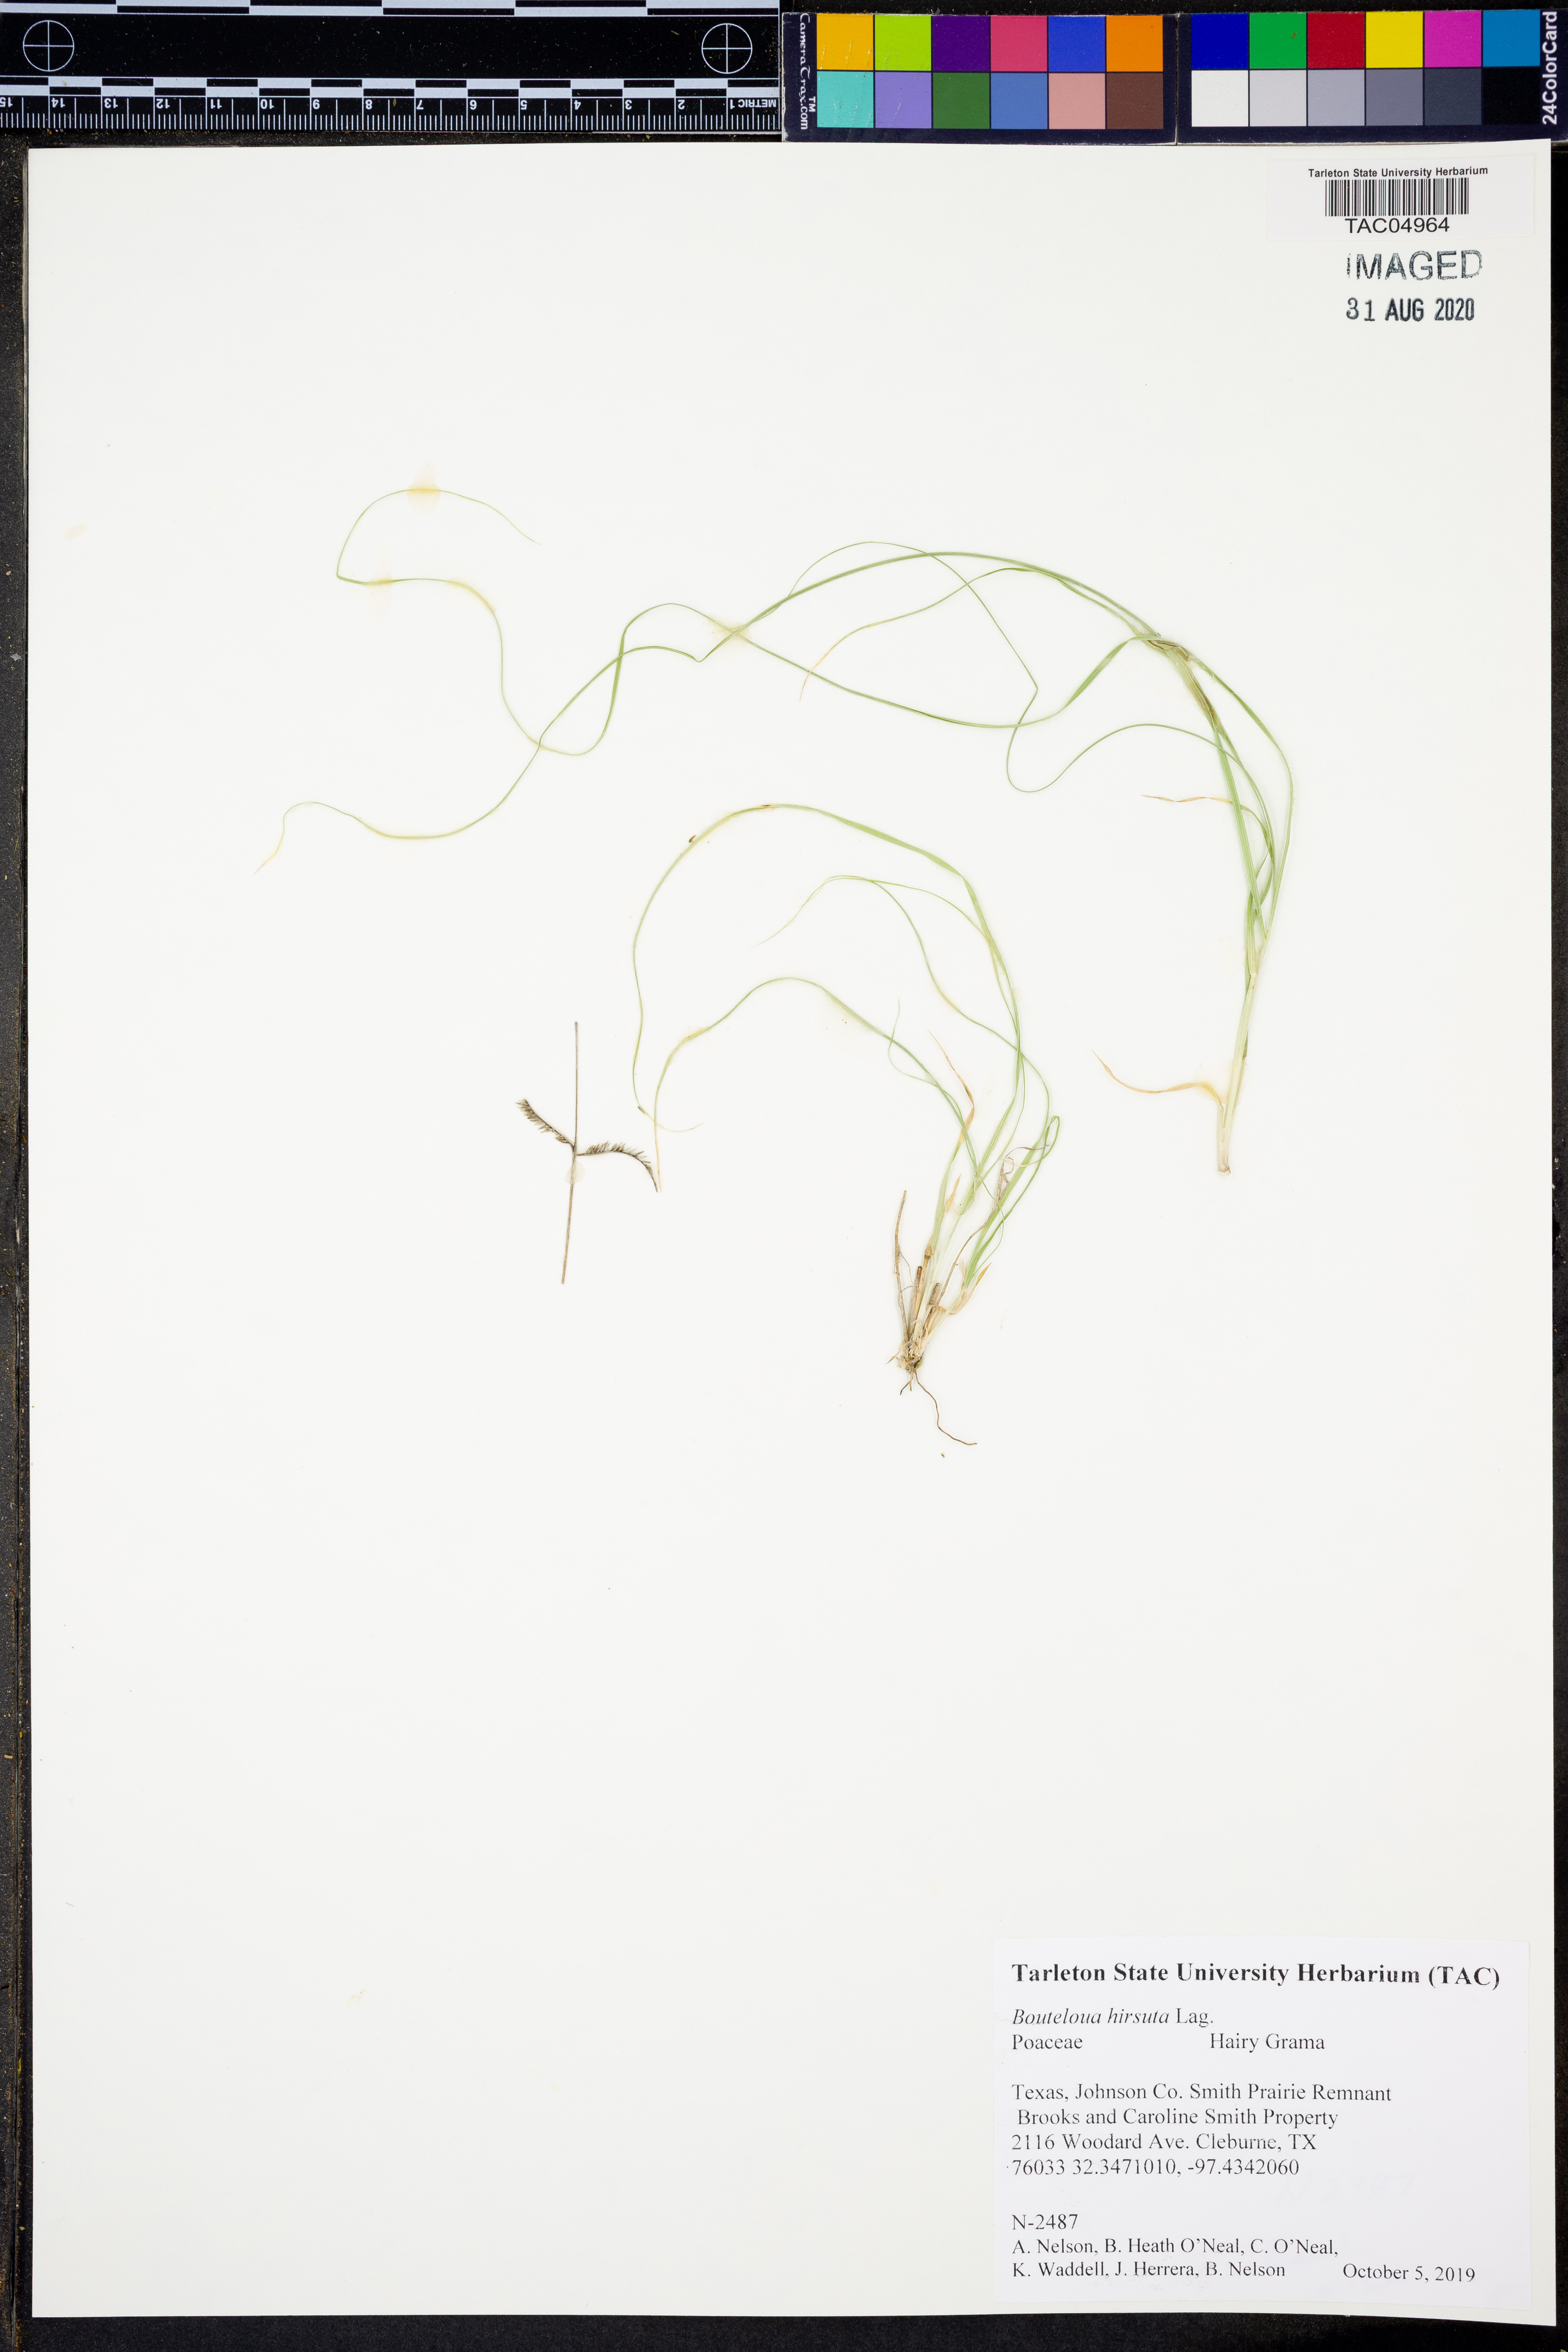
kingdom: Plantae
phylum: Tracheophyta
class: Liliopsida
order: Poales
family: Poaceae
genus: Bouteloua
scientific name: Bouteloua hirsuta
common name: Hairy grama
